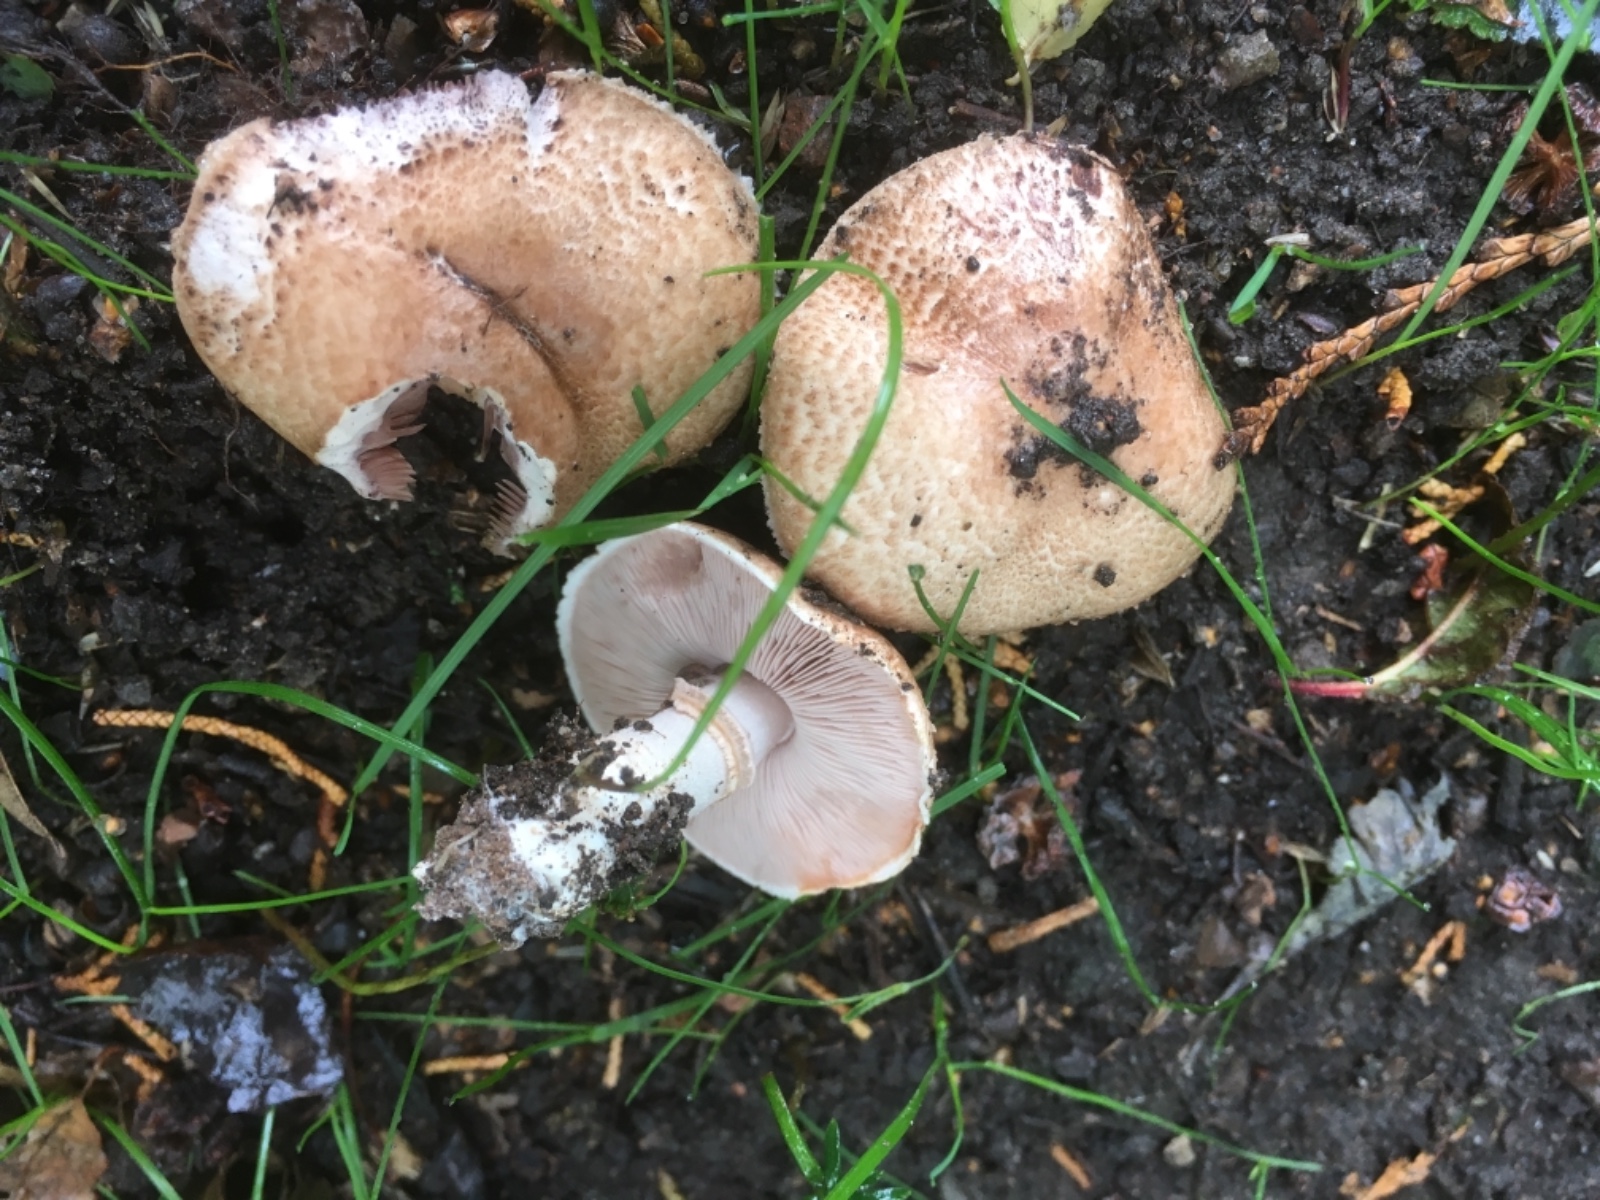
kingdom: Fungi
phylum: Basidiomycota
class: Agaricomycetes
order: Agaricales
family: Agaricaceae
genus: Agaricus
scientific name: Agaricus sylvaticus
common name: lille blod-champignon
